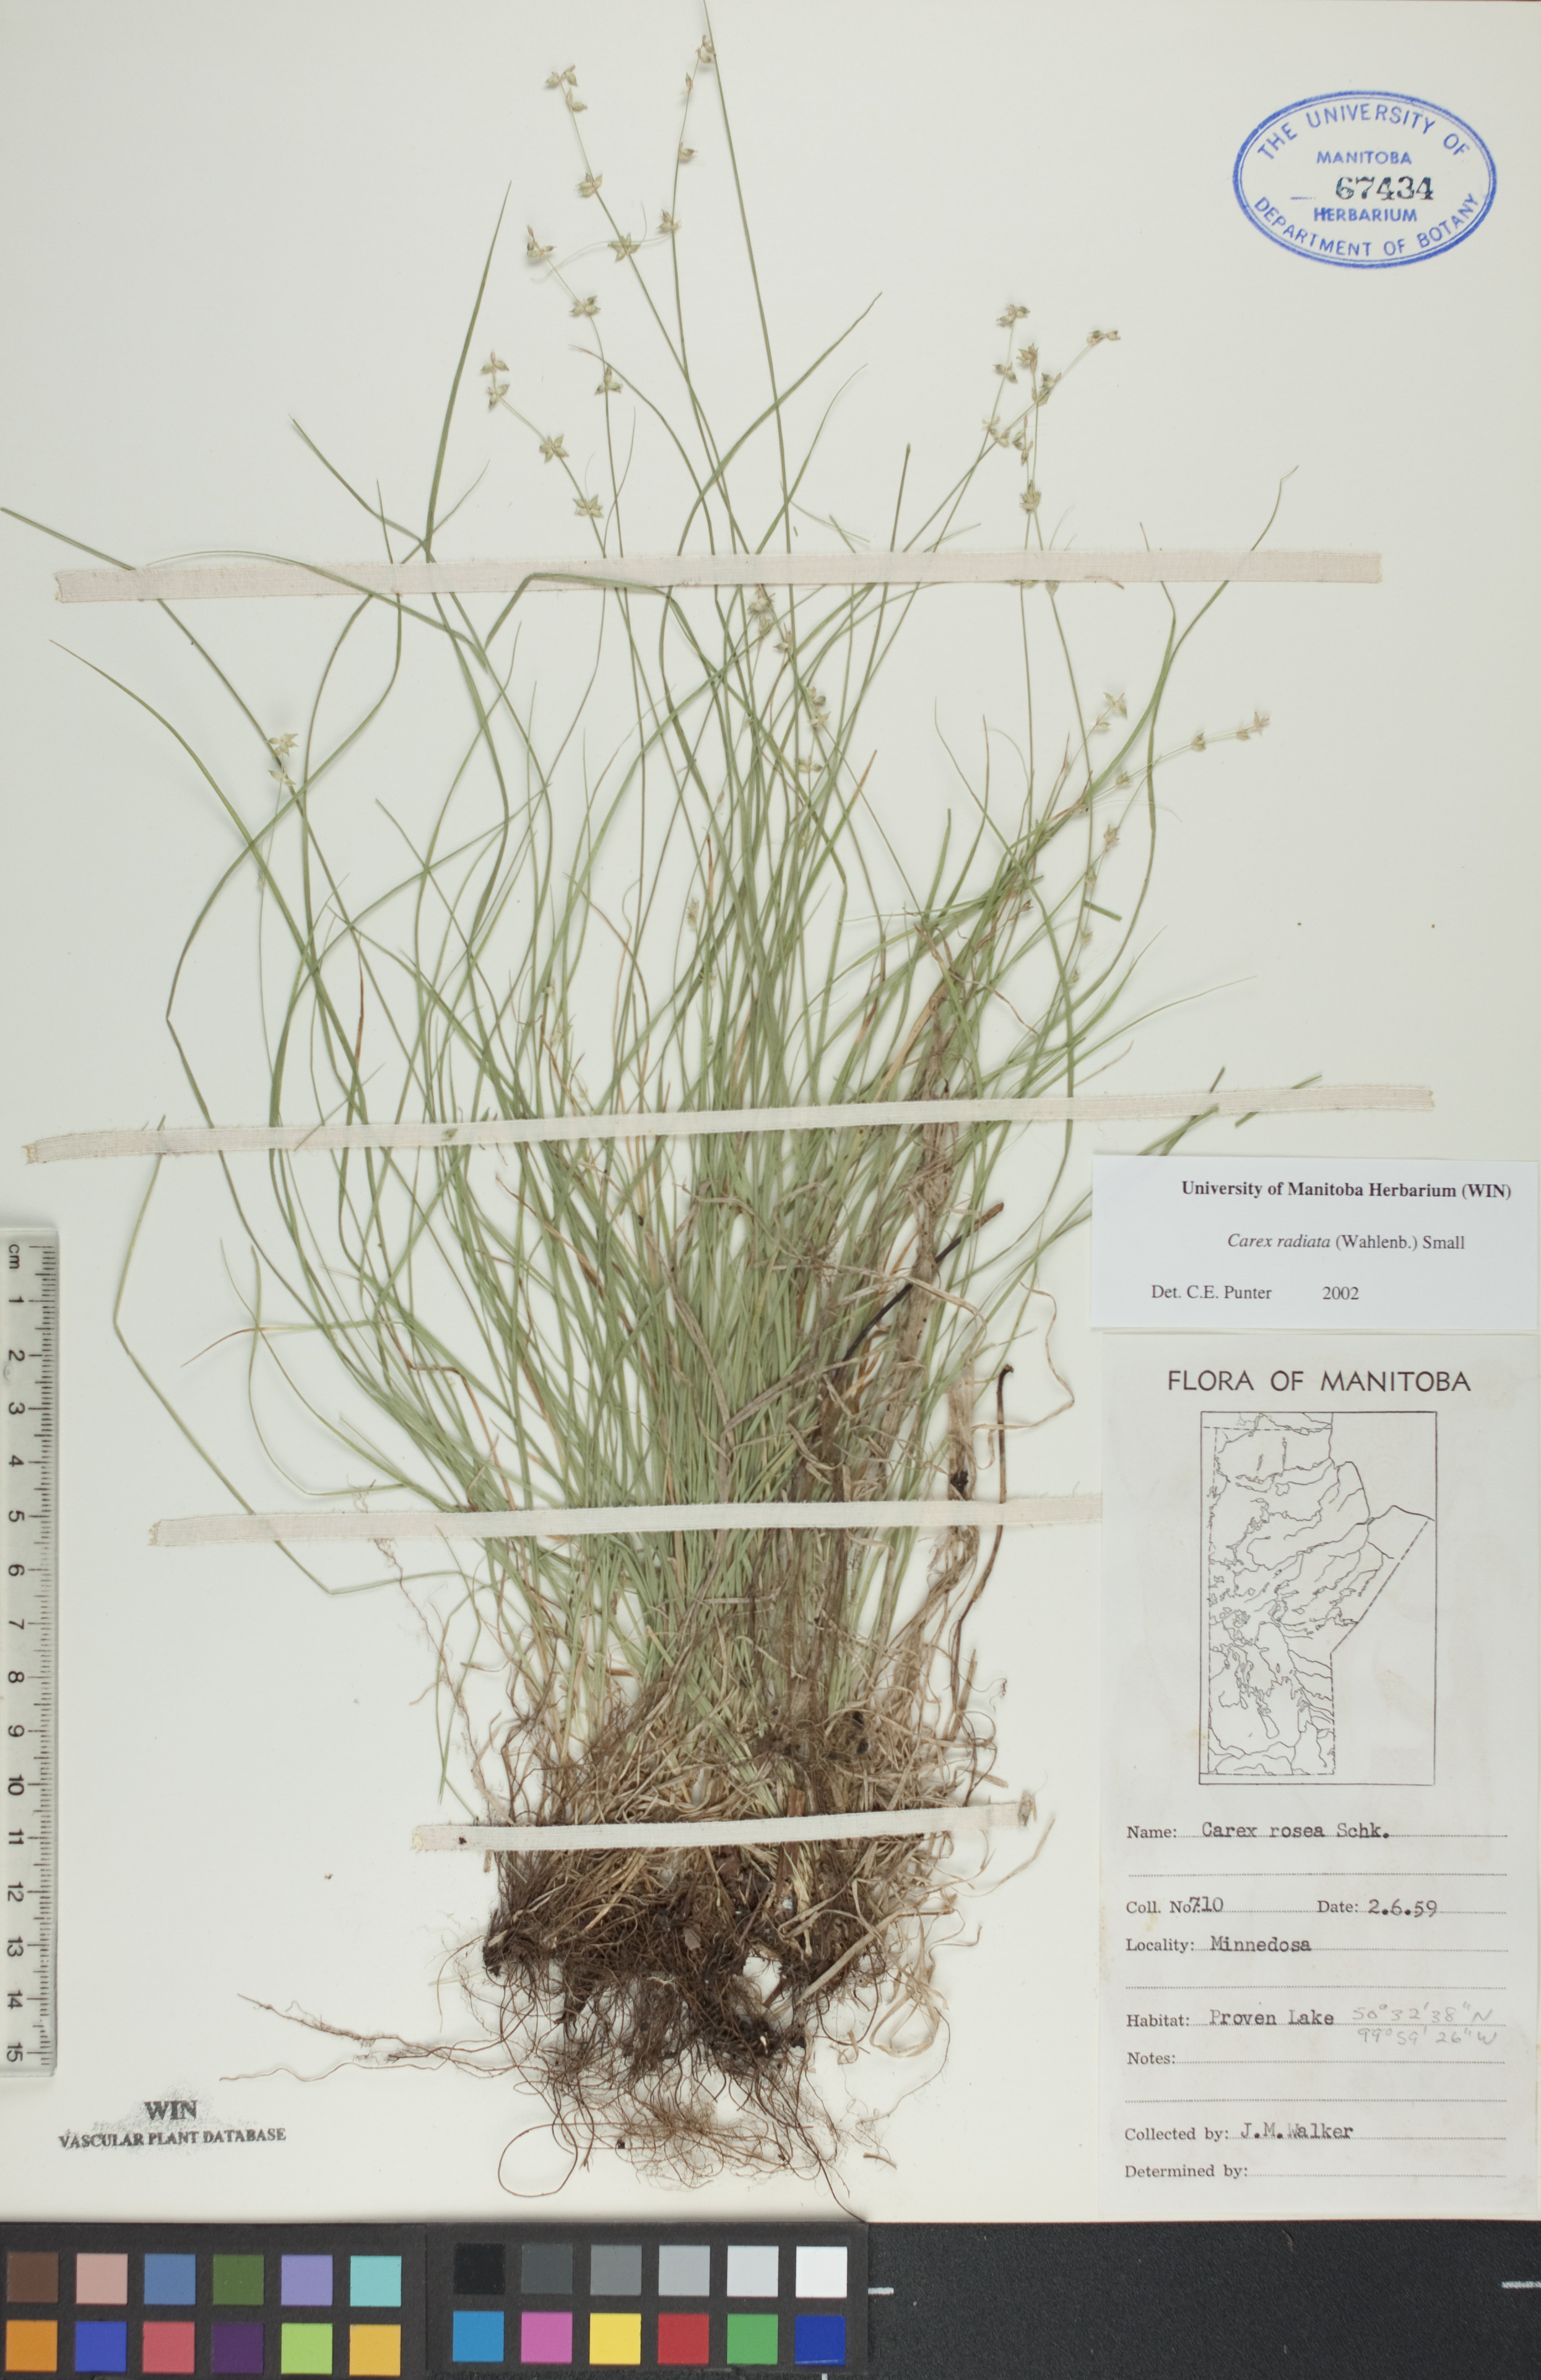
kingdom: Plantae
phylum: Tracheophyta
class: Liliopsida
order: Poales
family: Cyperaceae
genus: Carex
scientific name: Carex radiata
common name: Eastern star sedge
